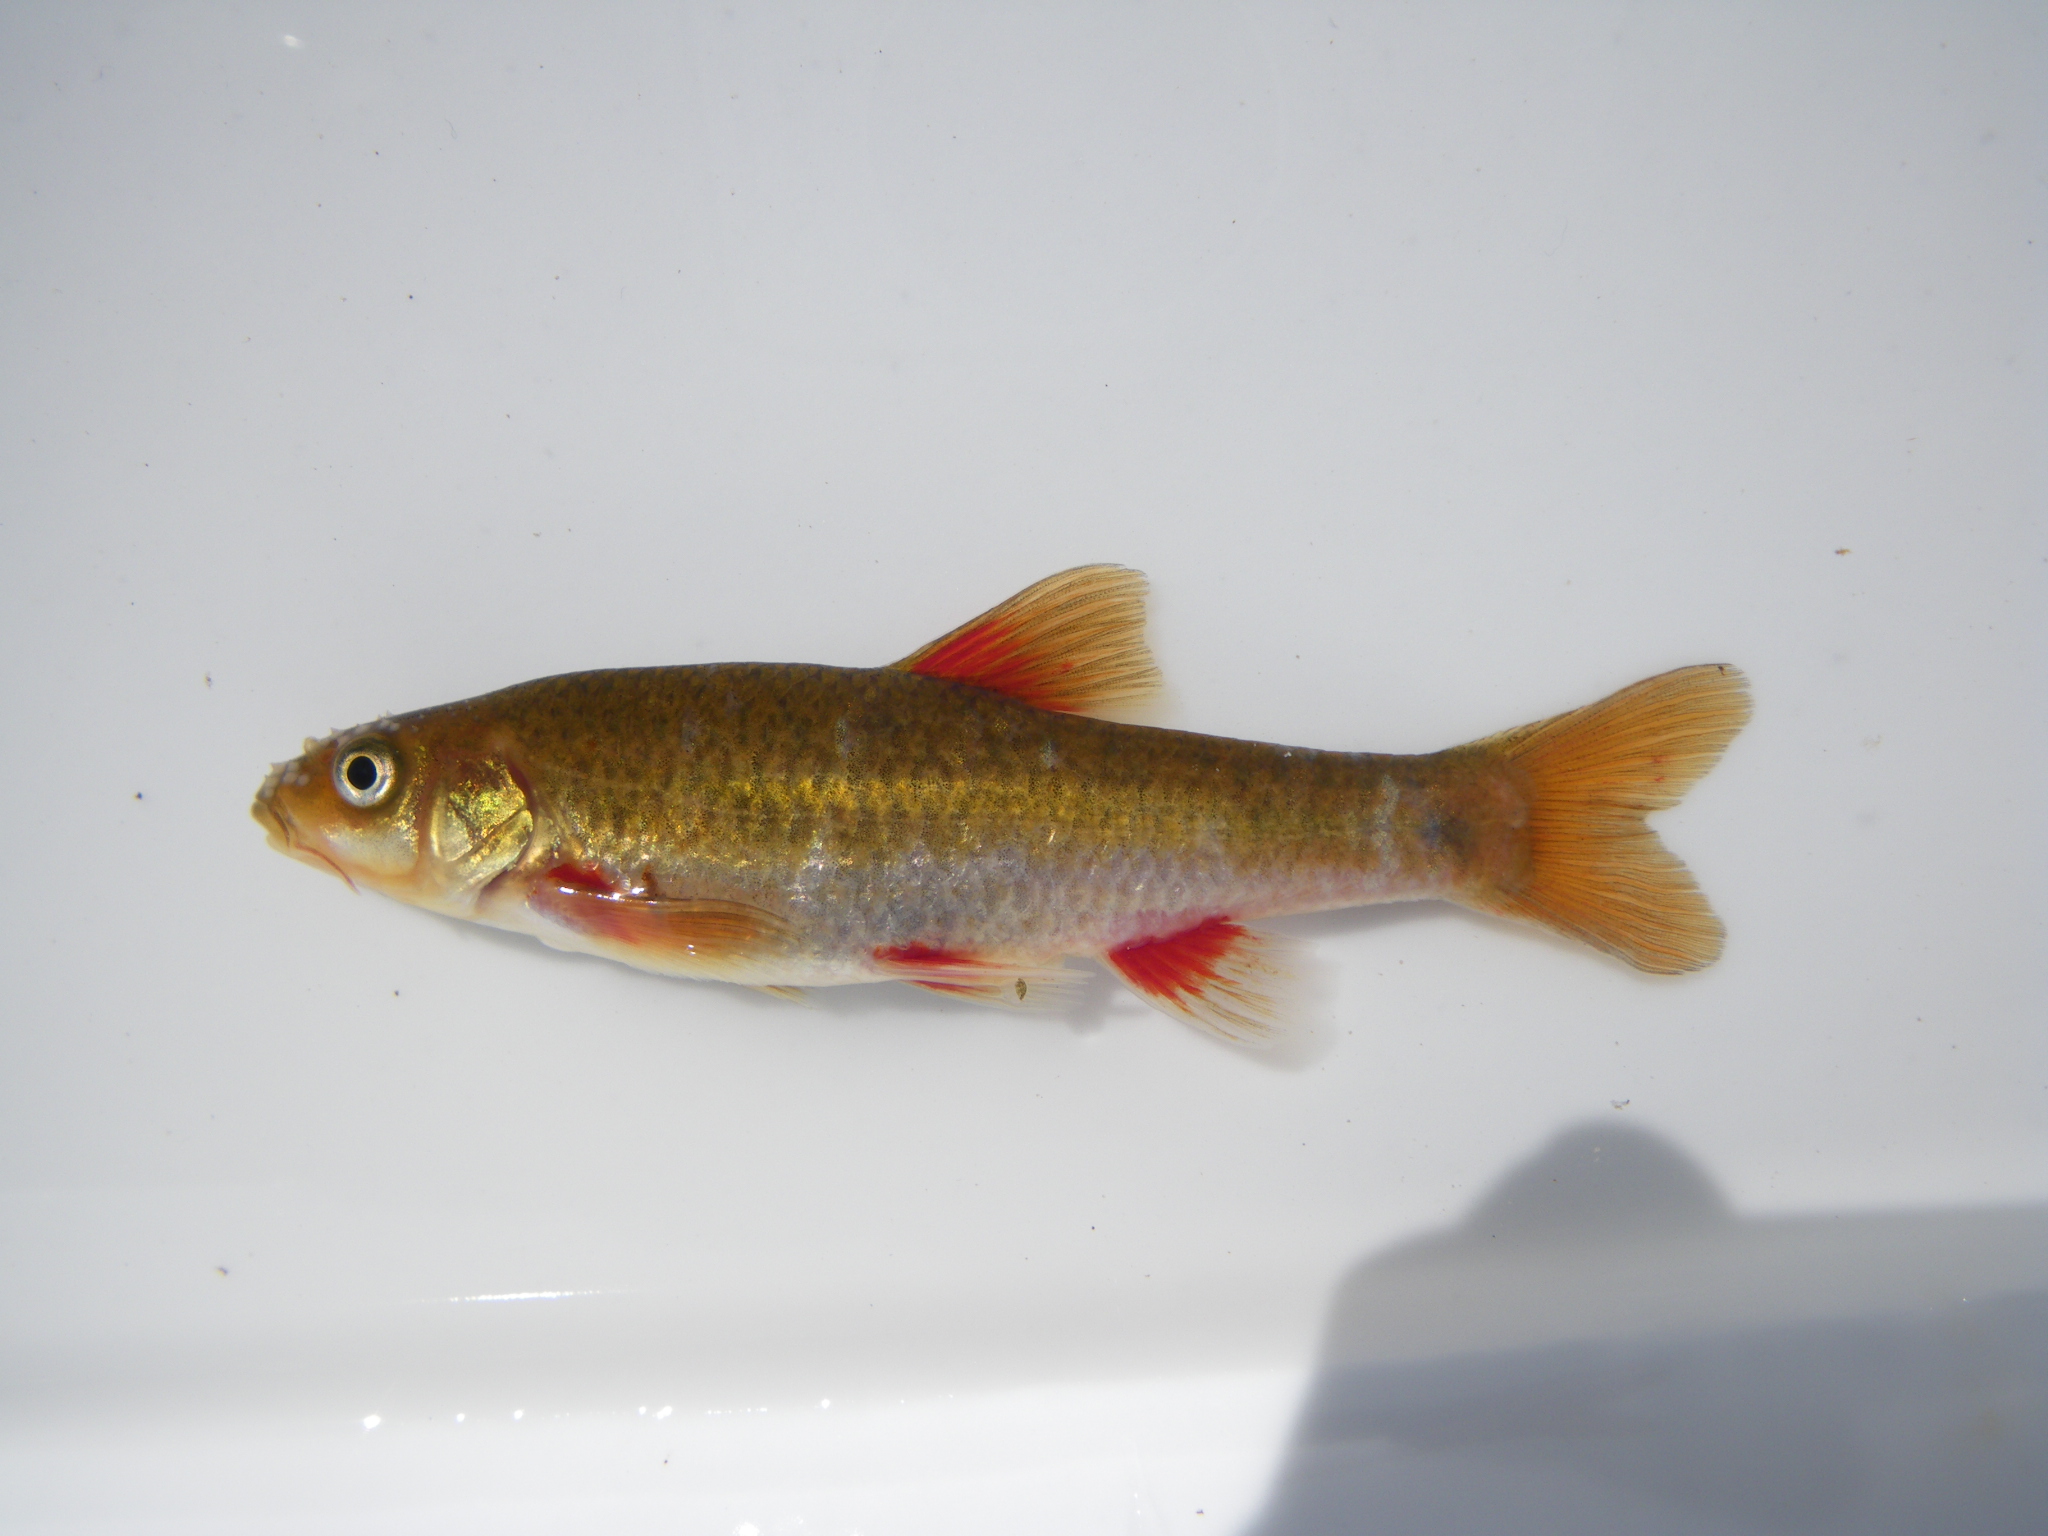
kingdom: Animalia
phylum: Chordata
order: Cypriniformes
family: Cyprinidae
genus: Pseudobarbus
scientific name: Pseudobarbus burchelli
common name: Burchell's redfin
